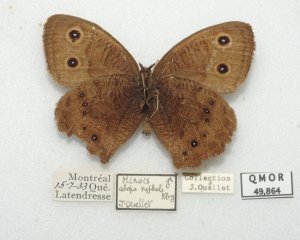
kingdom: Animalia
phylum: Arthropoda
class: Insecta
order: Lepidoptera
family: Nymphalidae
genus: Cercyonis
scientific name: Cercyonis pegala
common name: Common Wood-Nymph
